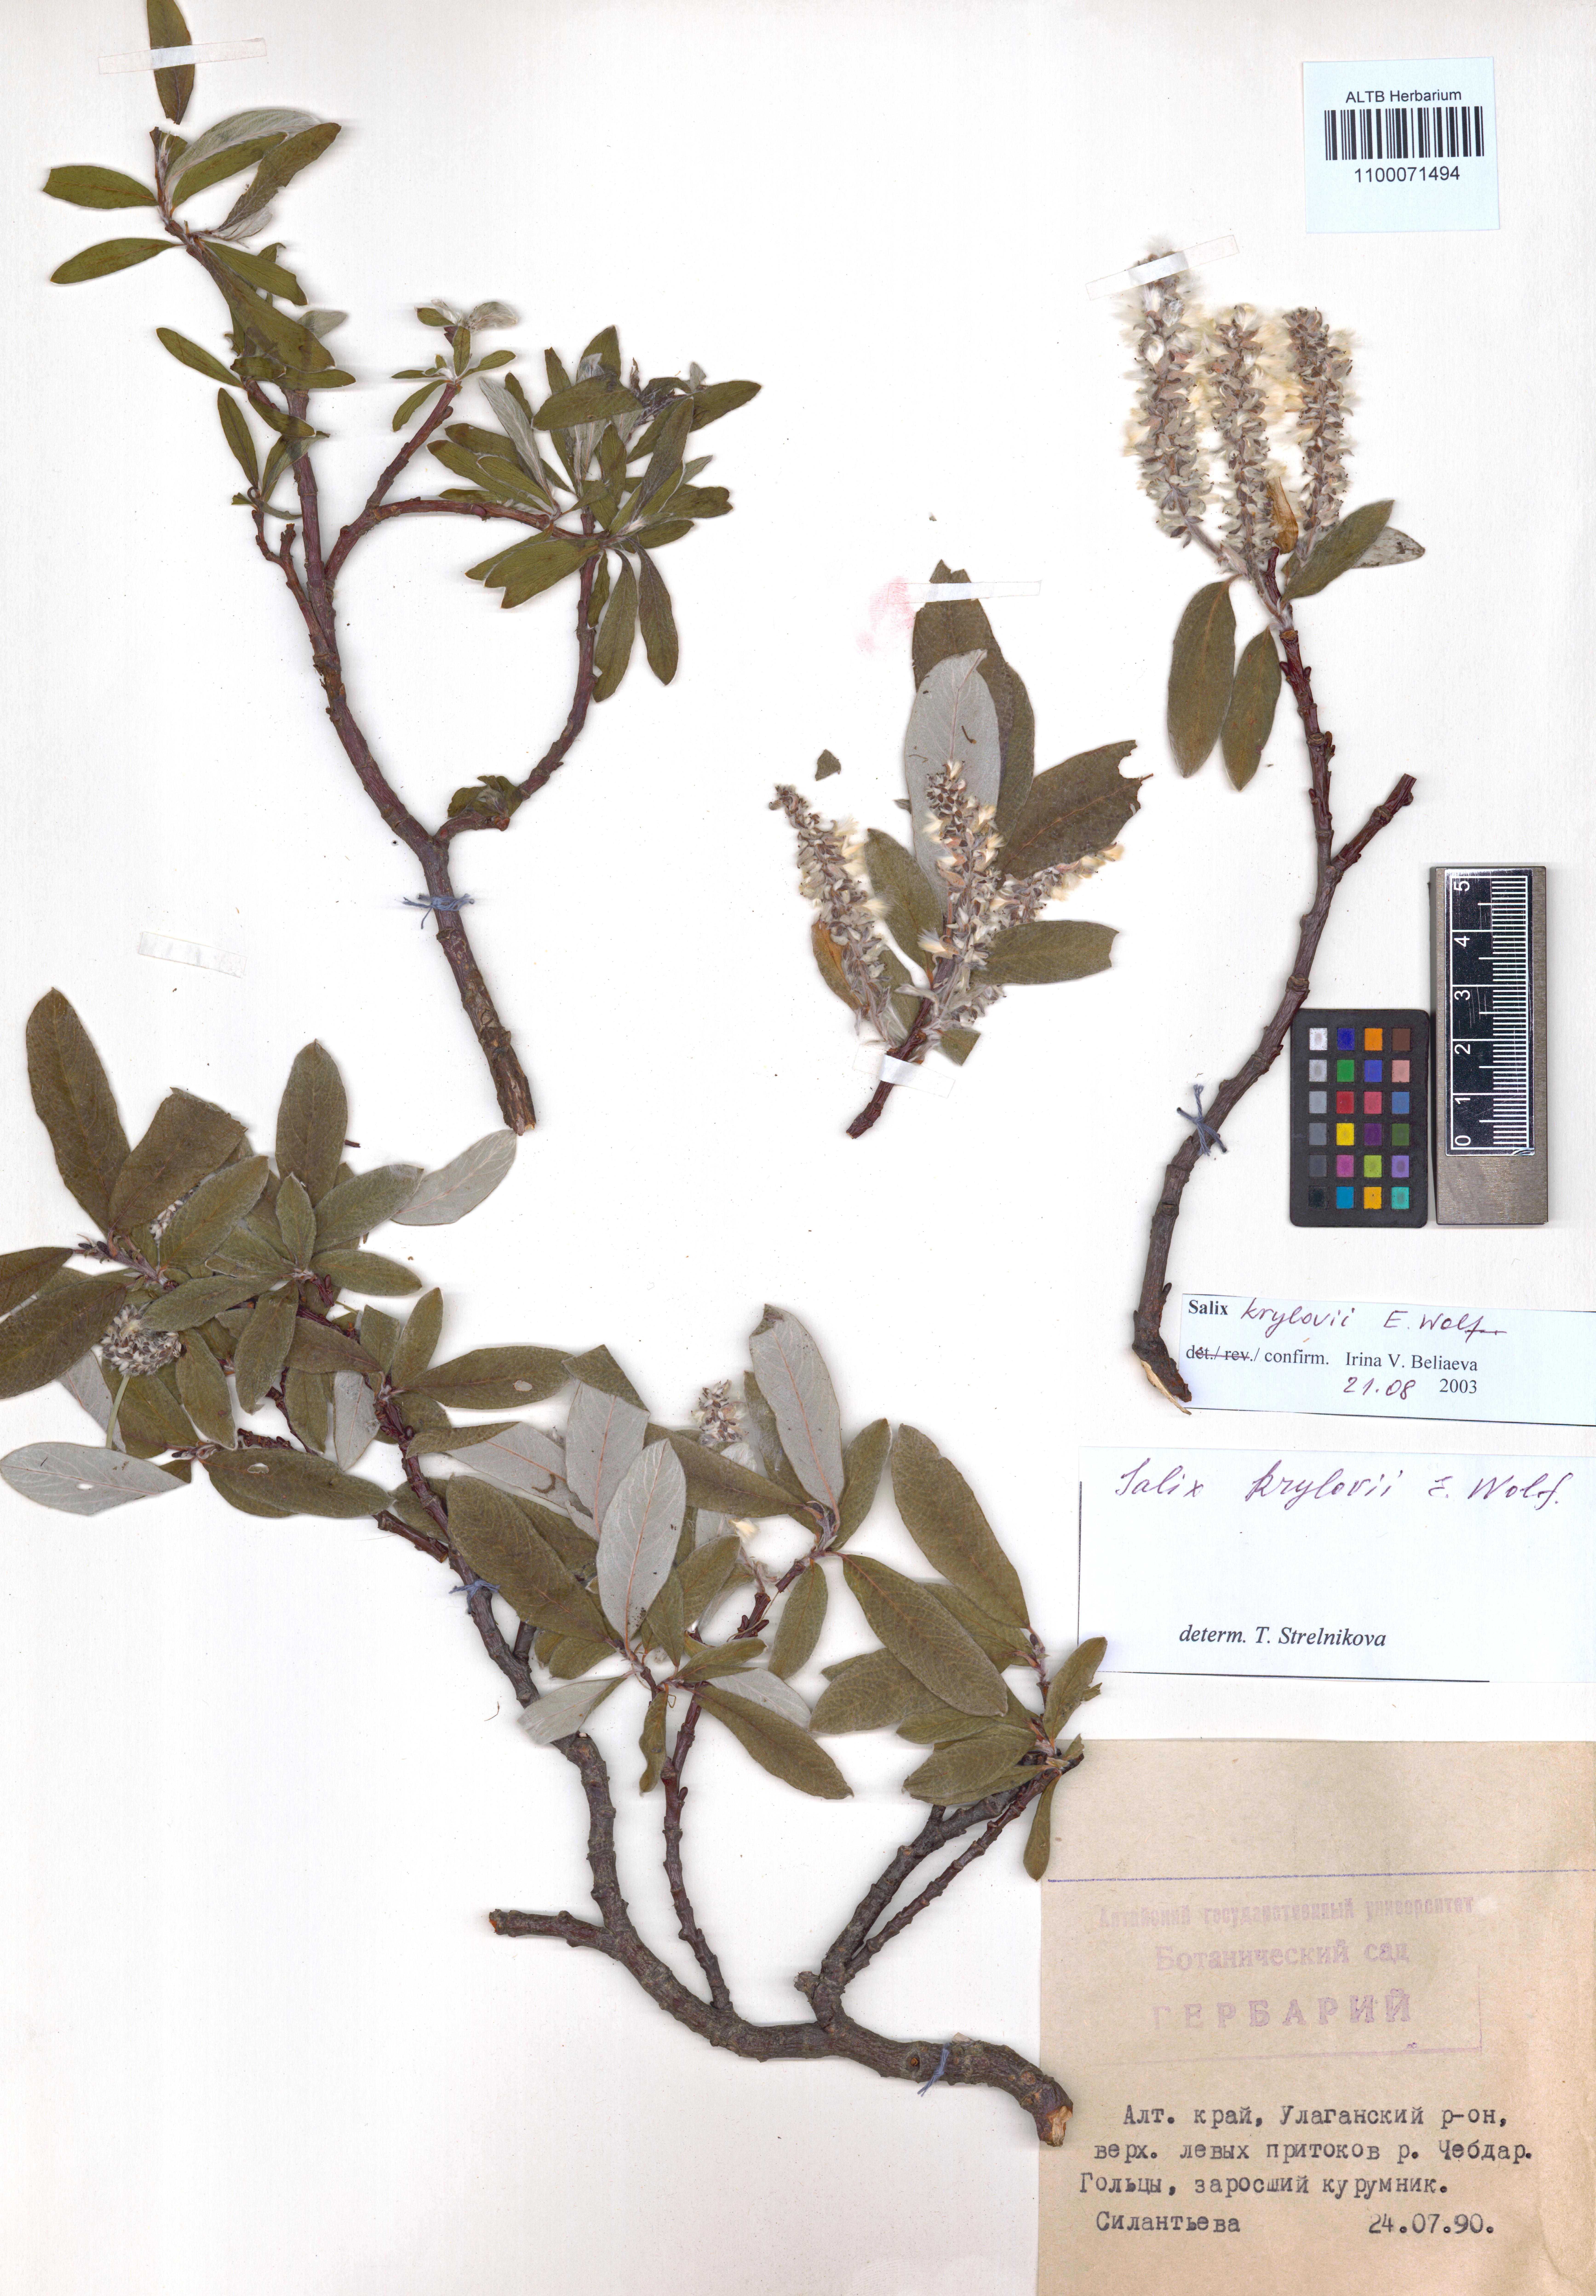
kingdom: Plantae
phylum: Tracheophyta
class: Magnoliopsida
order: Malpighiales
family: Salicaceae
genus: Salix
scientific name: Salix krylovii
